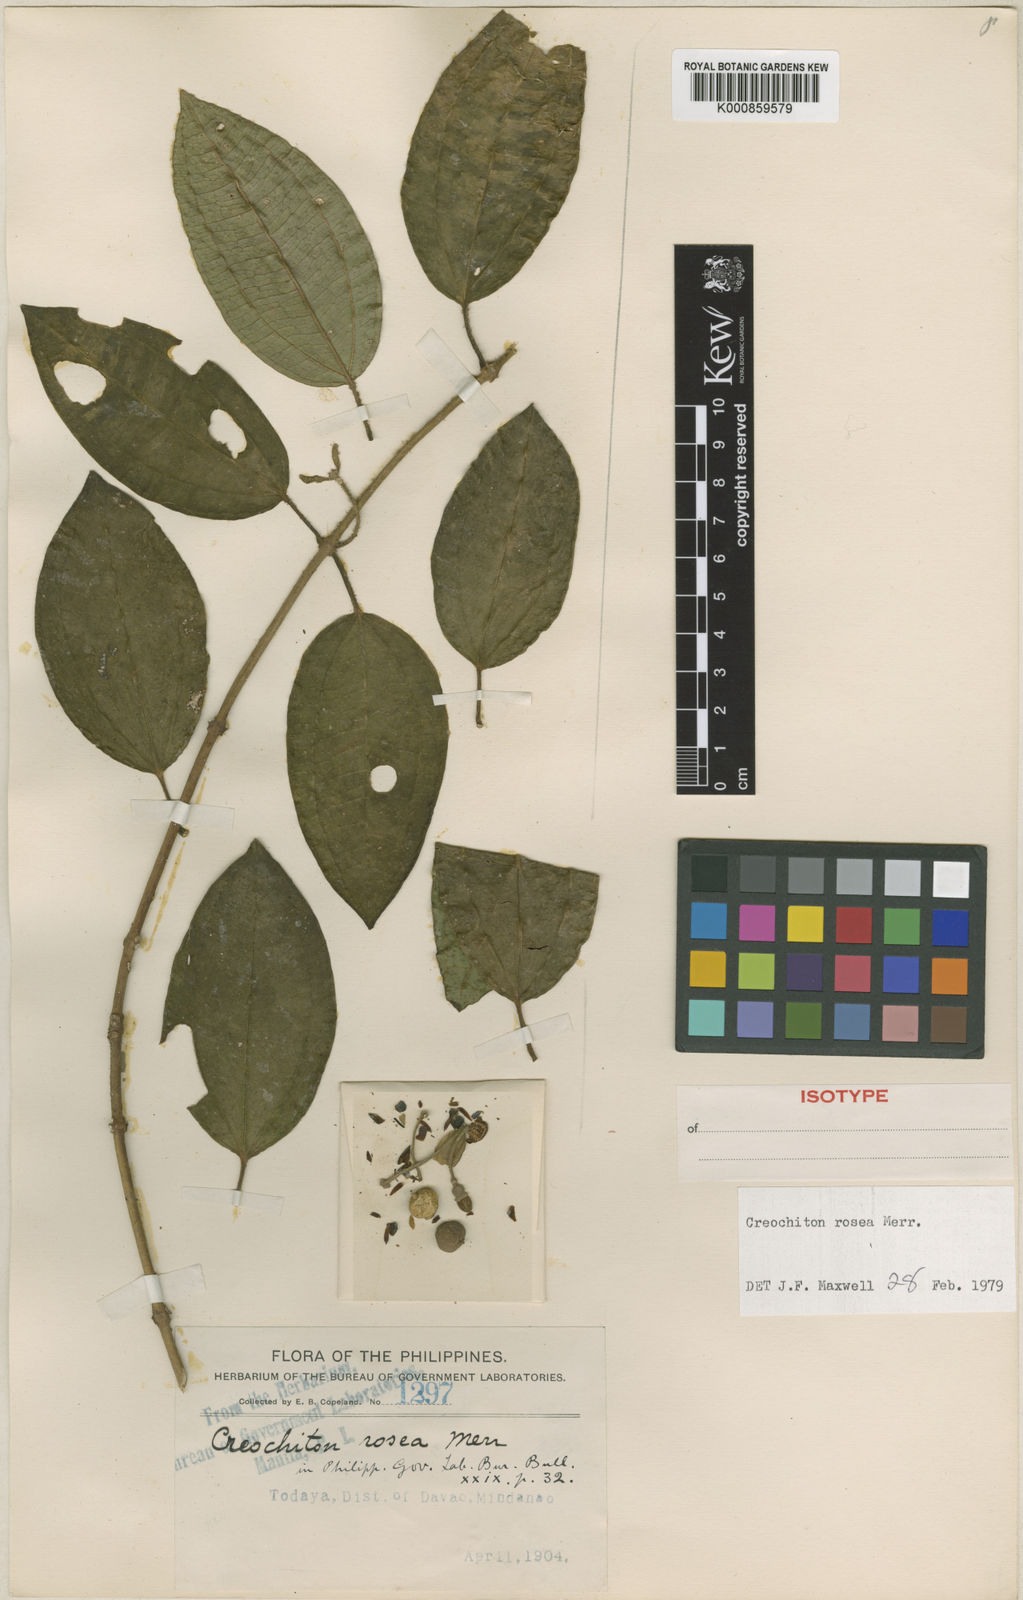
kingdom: Plantae
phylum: Tracheophyta
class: Magnoliopsida
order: Myrtales
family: Melastomataceae
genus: Creochiton
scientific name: Creochiton rosea
